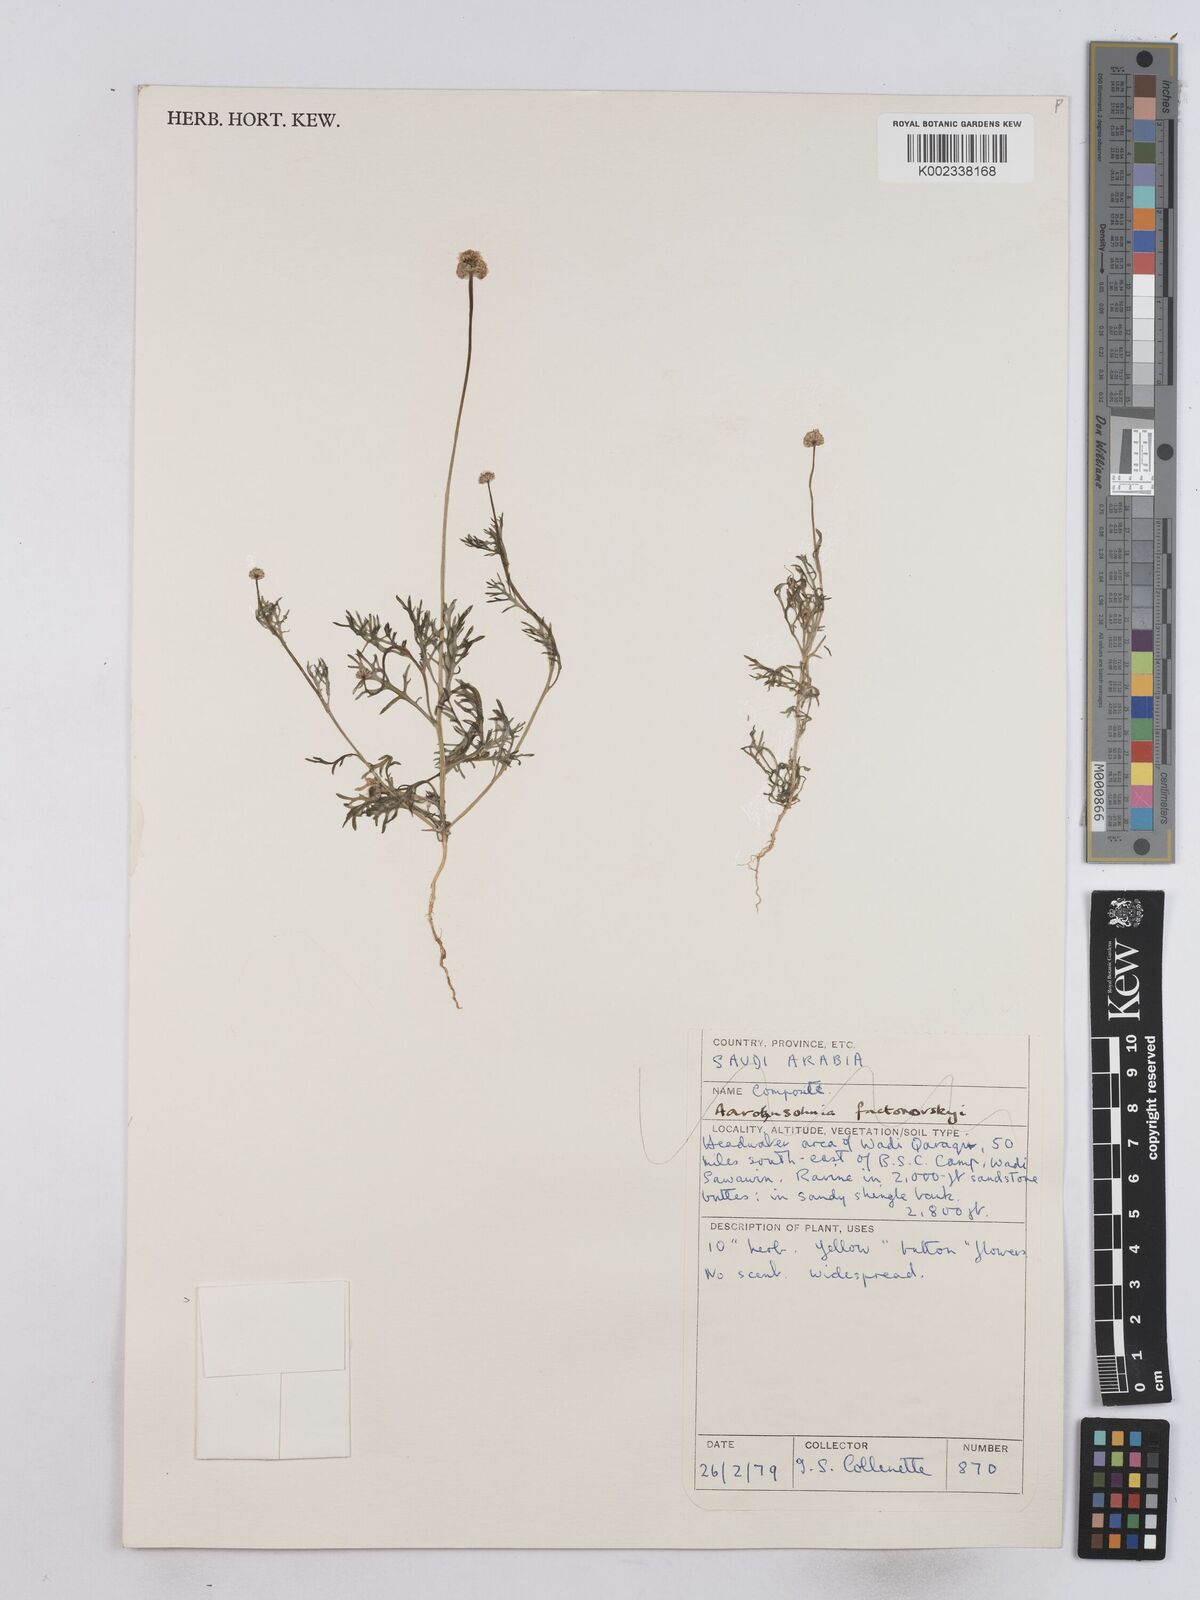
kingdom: Plantae
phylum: Tracheophyta
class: Magnoliopsida
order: Asterales
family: Asteraceae
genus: Matricaria
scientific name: Matricaria
